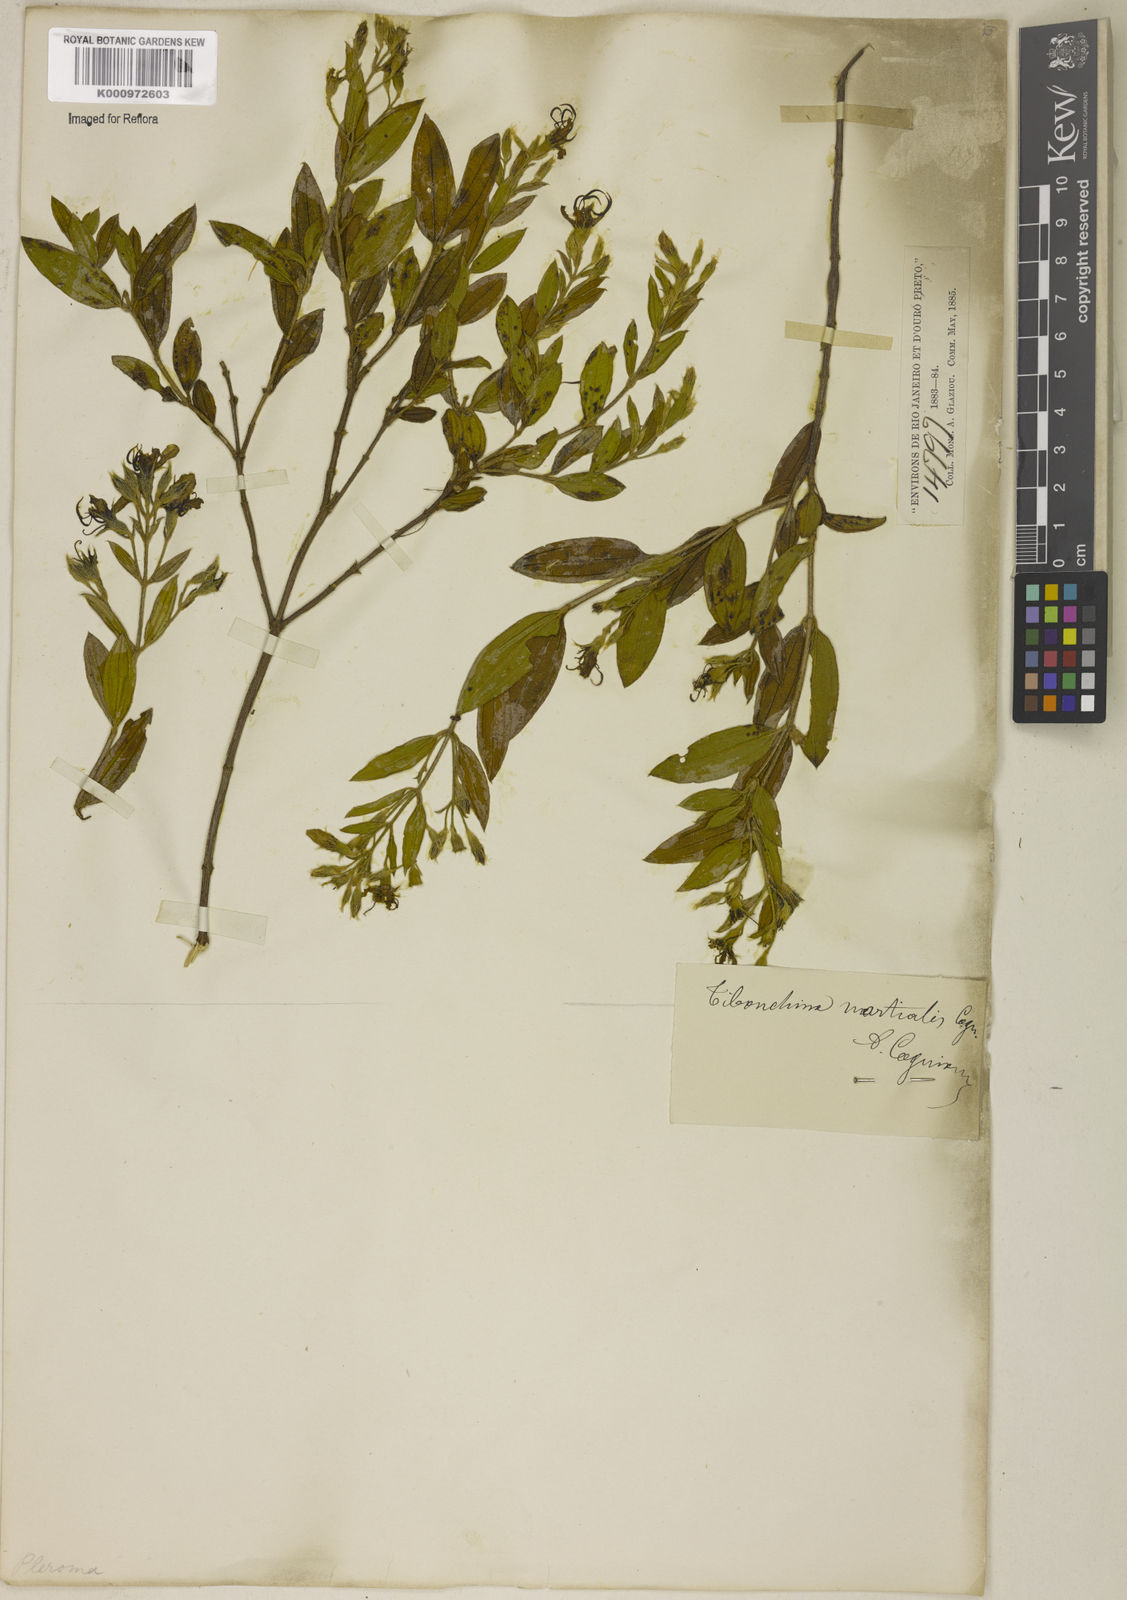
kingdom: Plantae
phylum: Tracheophyta
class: Magnoliopsida
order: Myrtales
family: Melastomataceae
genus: Pleroma
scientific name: Pleroma martiale
